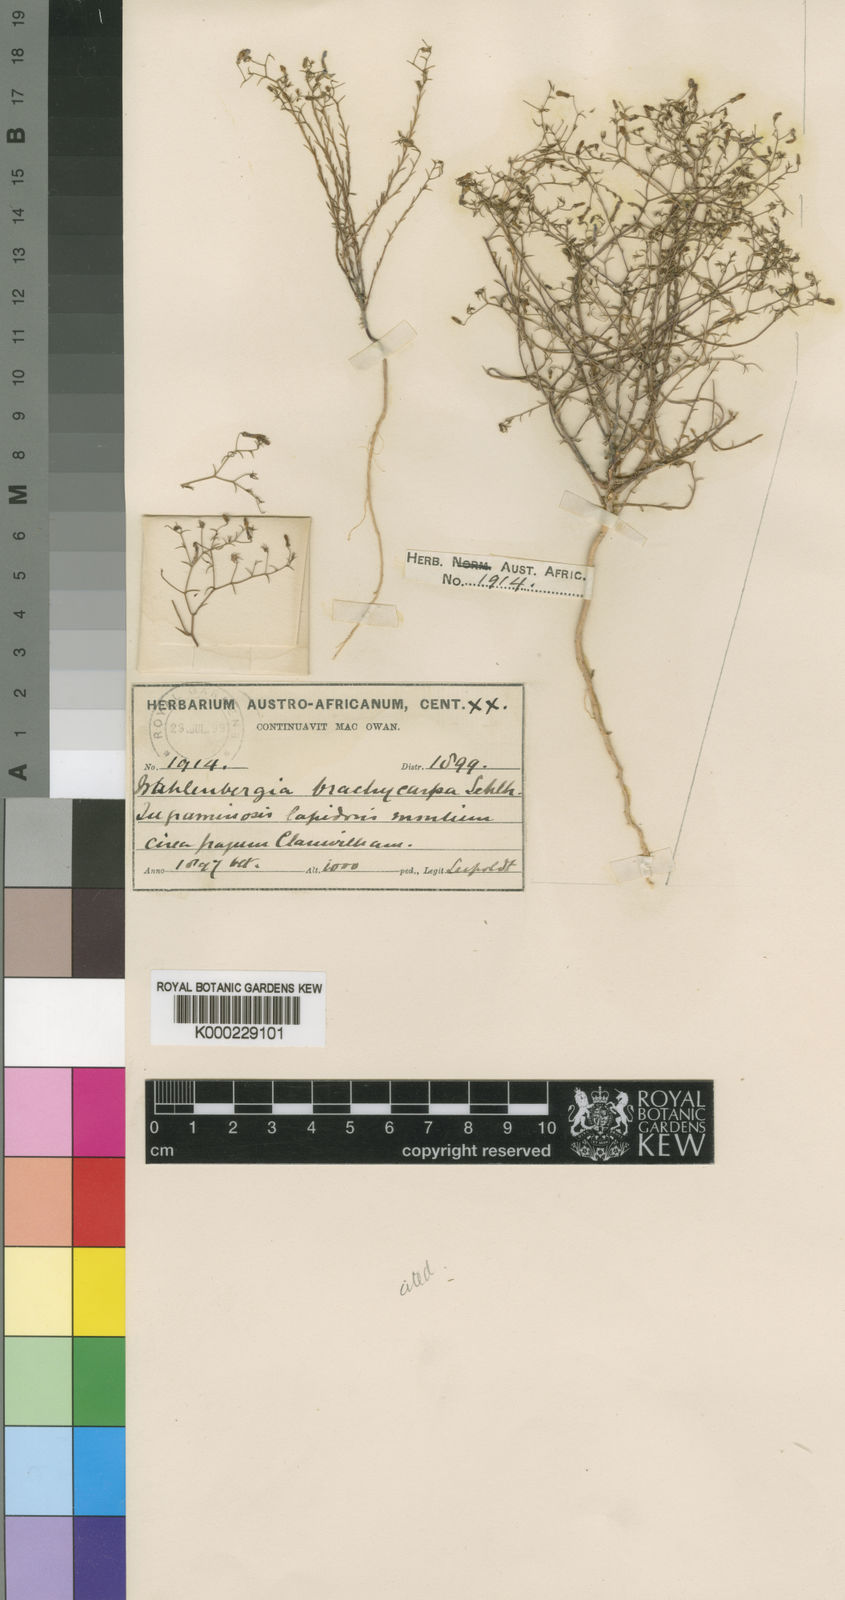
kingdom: Plantae
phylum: Tracheophyta
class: Magnoliopsida
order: Asterales
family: Campanulaceae
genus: Wahlenbergia
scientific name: Wahlenbergia brachycarpa
